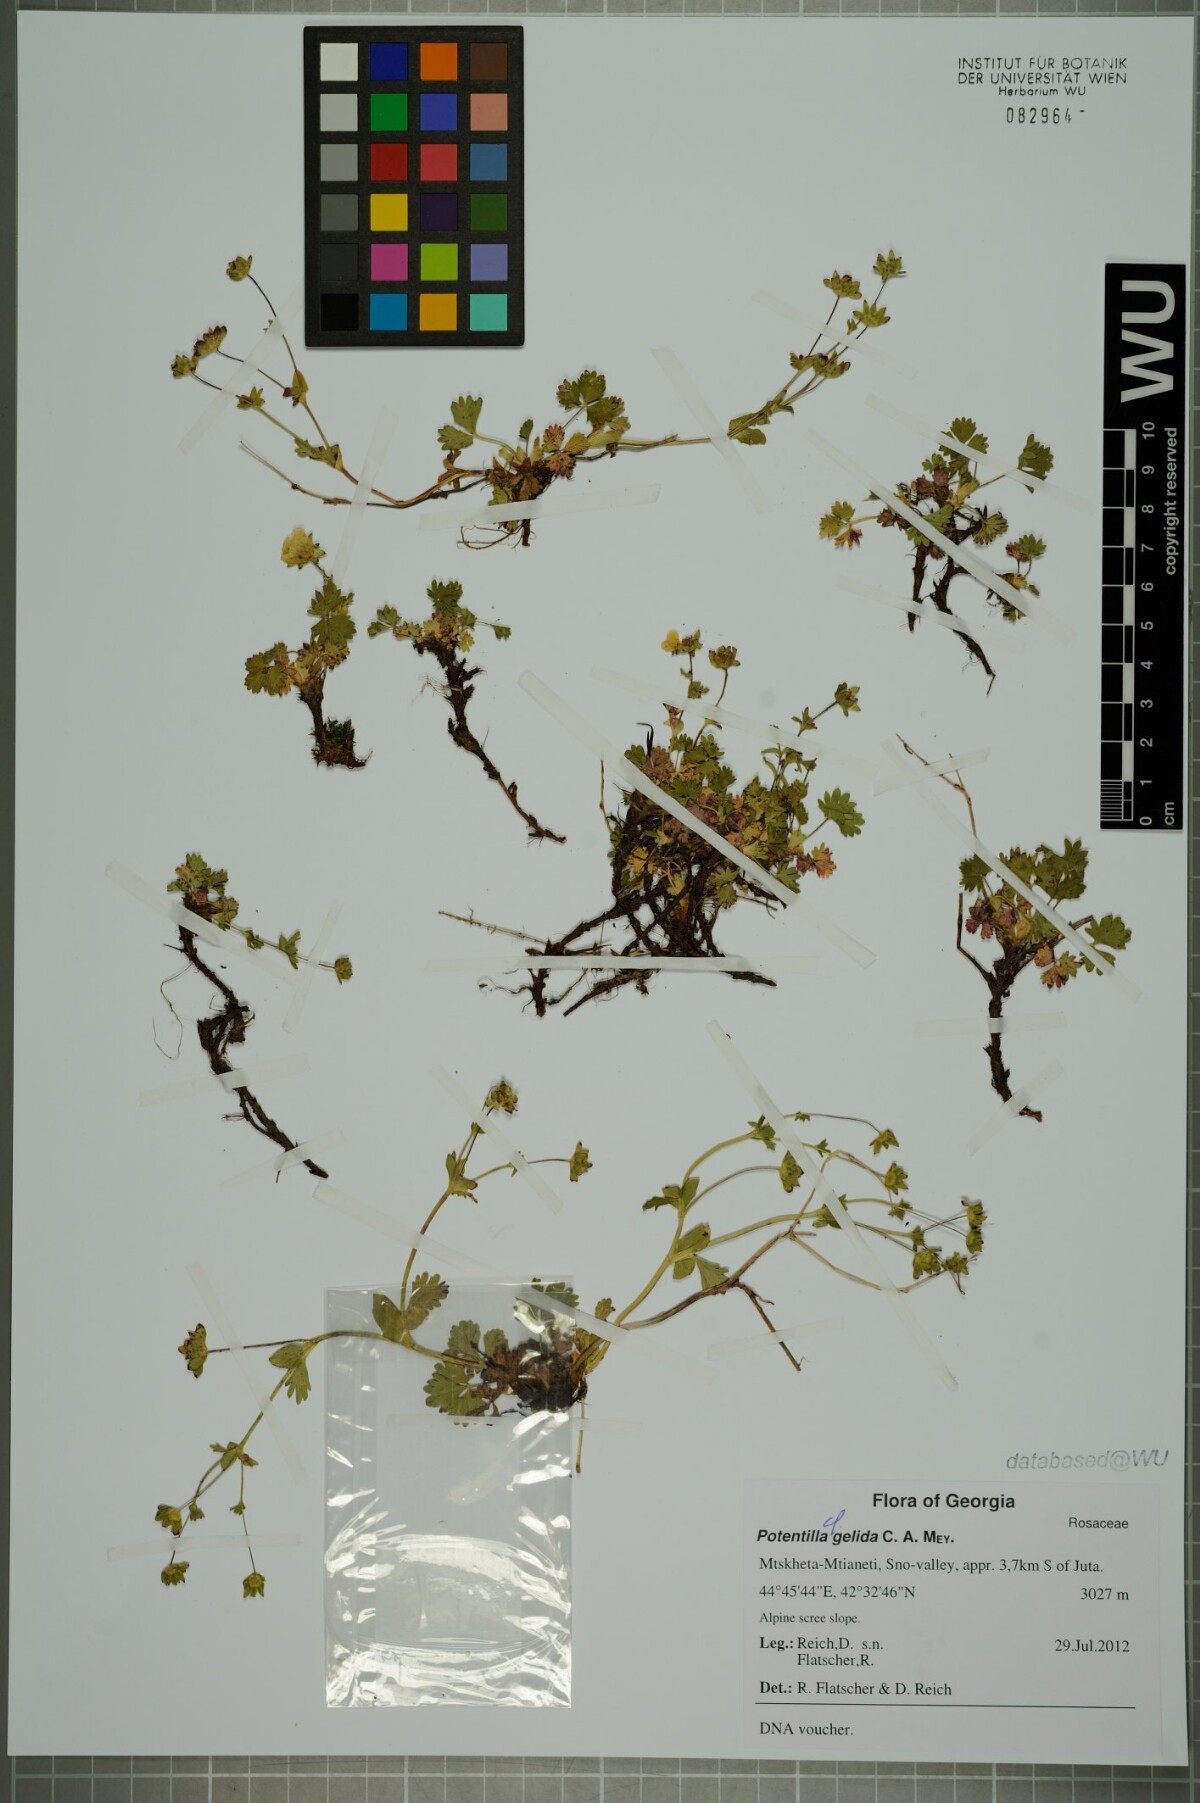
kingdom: Plantae
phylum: Tracheophyta
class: Magnoliopsida
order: Rosales
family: Rosaceae
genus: Potentilla
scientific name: Potentilla crantzii
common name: Alpine cinquefoil
